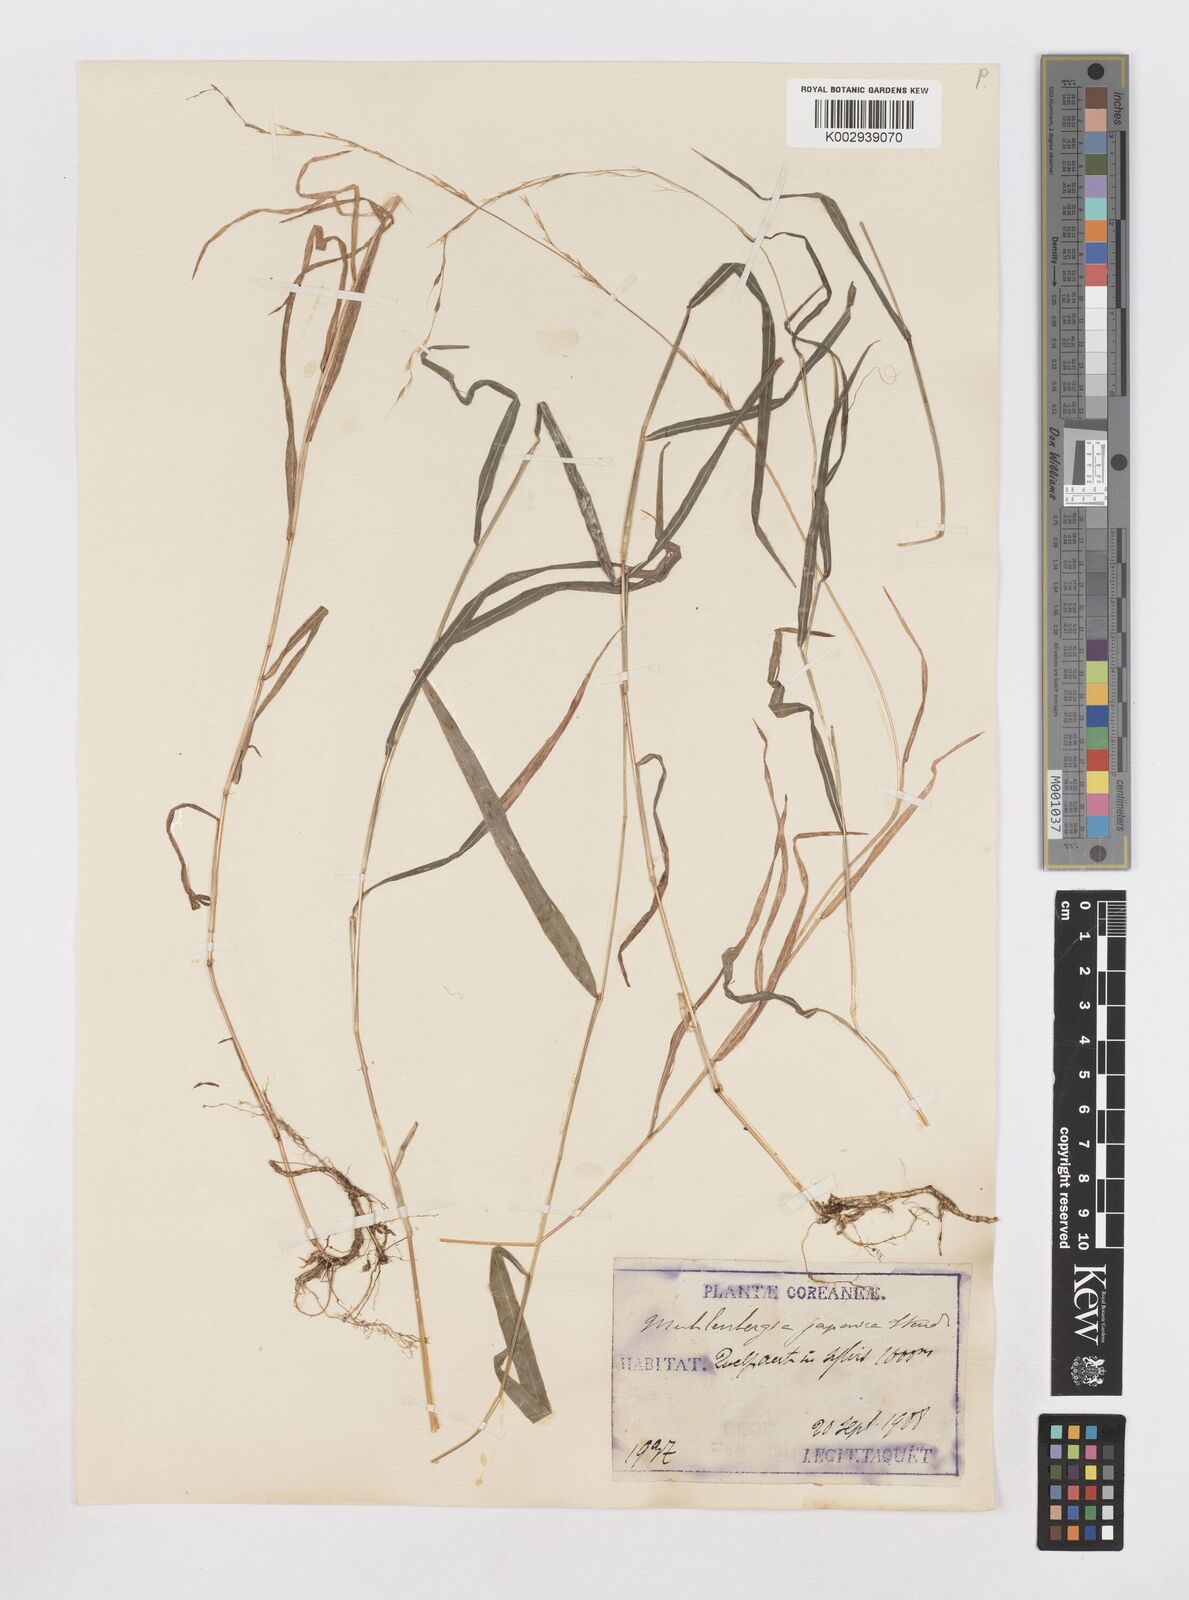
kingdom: Plantae
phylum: Tracheophyta
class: Liliopsida
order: Poales
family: Poaceae
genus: Muhlenbergia
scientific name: Muhlenbergia hakonensis
